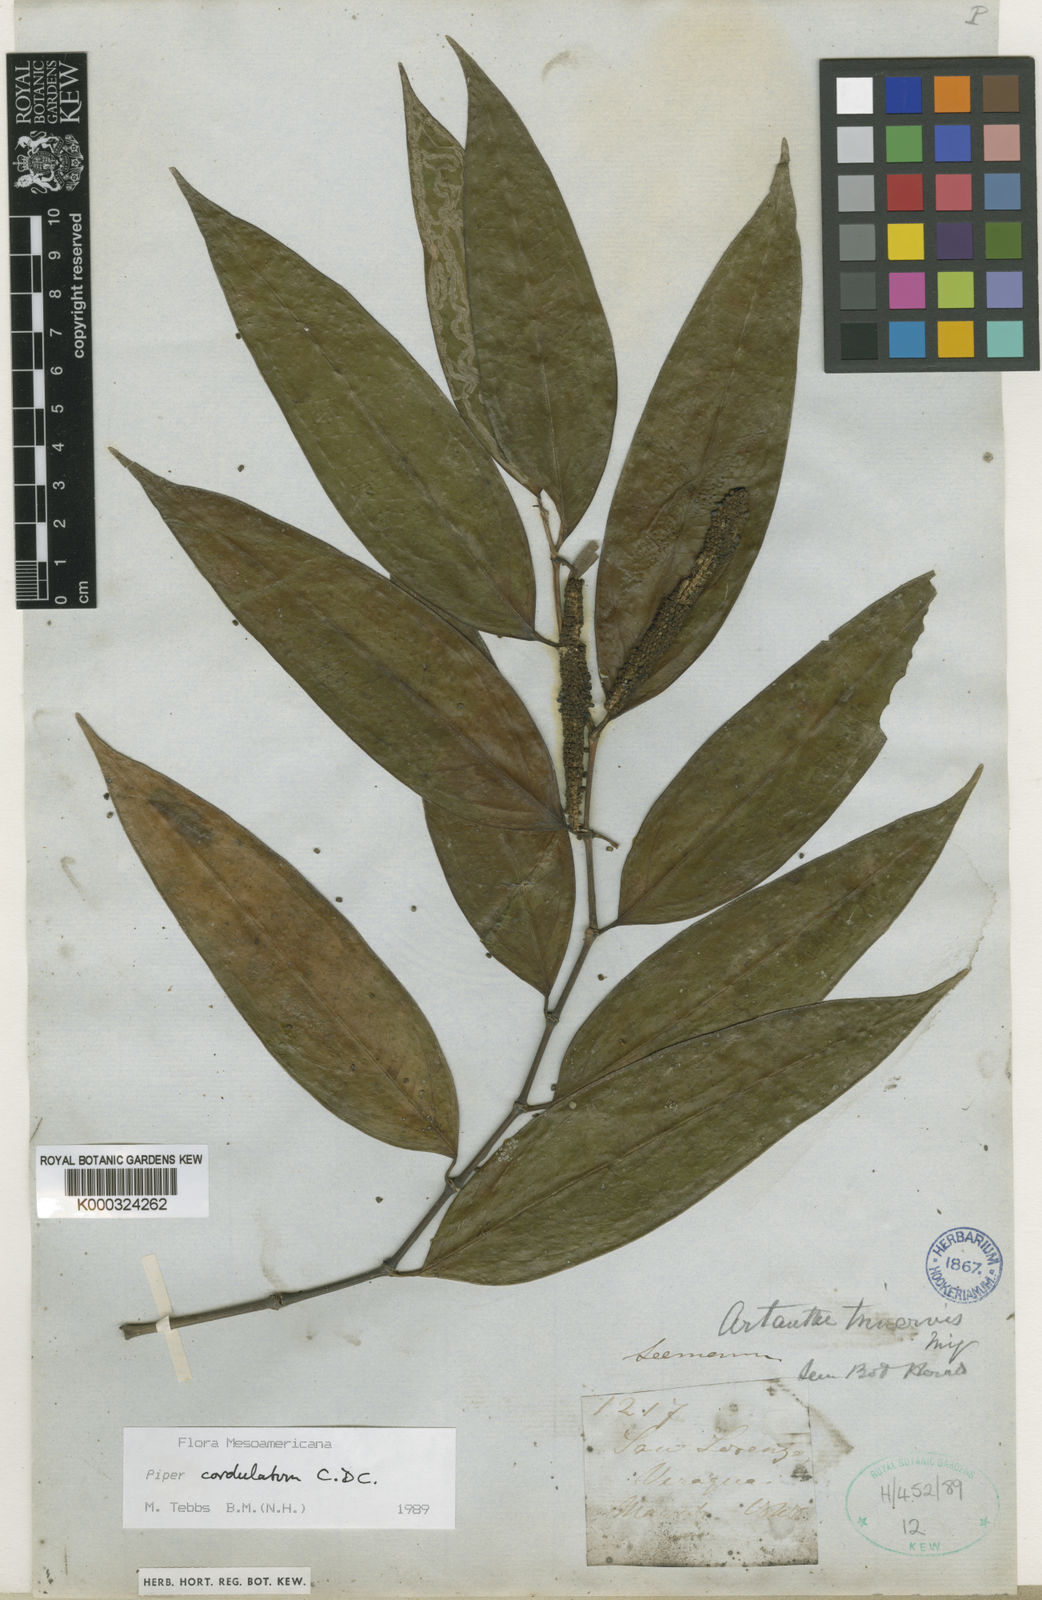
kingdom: Plantae
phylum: Tracheophyta
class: Magnoliopsida
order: Piperales
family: Piperaceae
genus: Piper
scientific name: Piper trinervium
